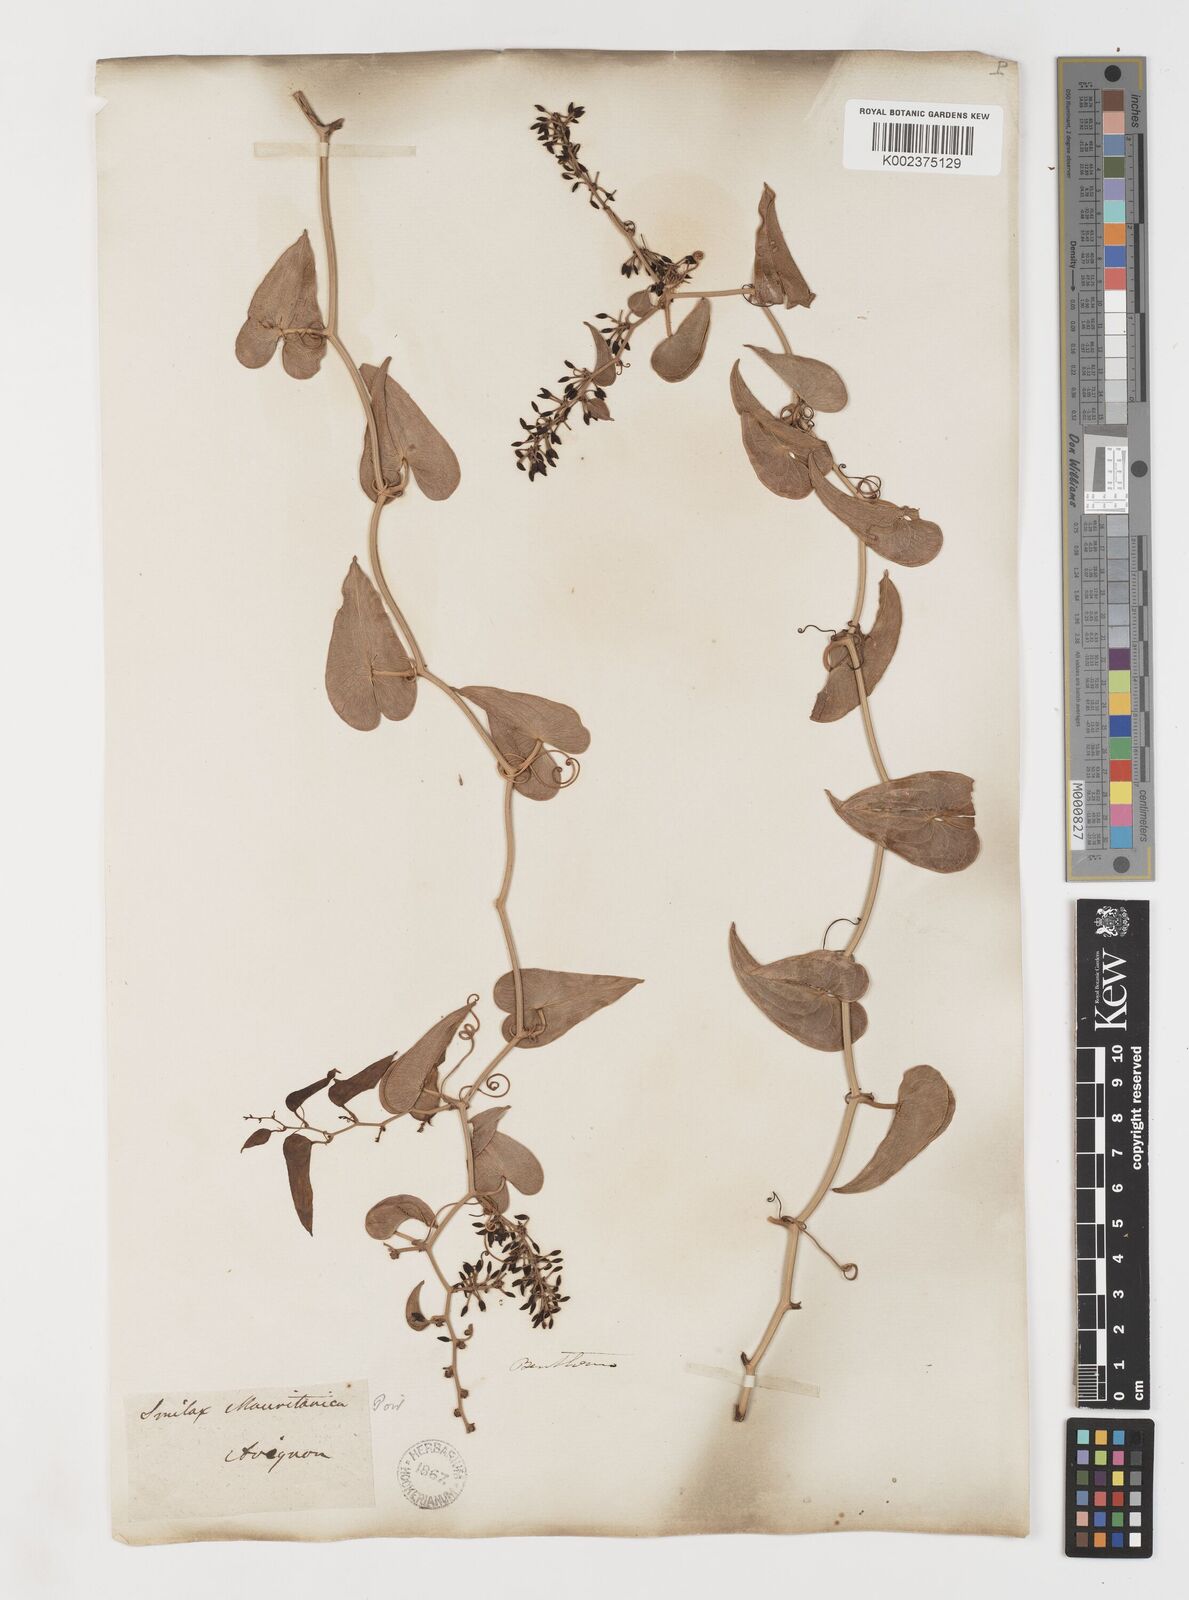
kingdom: Plantae
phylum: Tracheophyta
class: Liliopsida
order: Liliales
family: Smilacaceae
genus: Smilax
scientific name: Smilax aspera
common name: Common smilax
